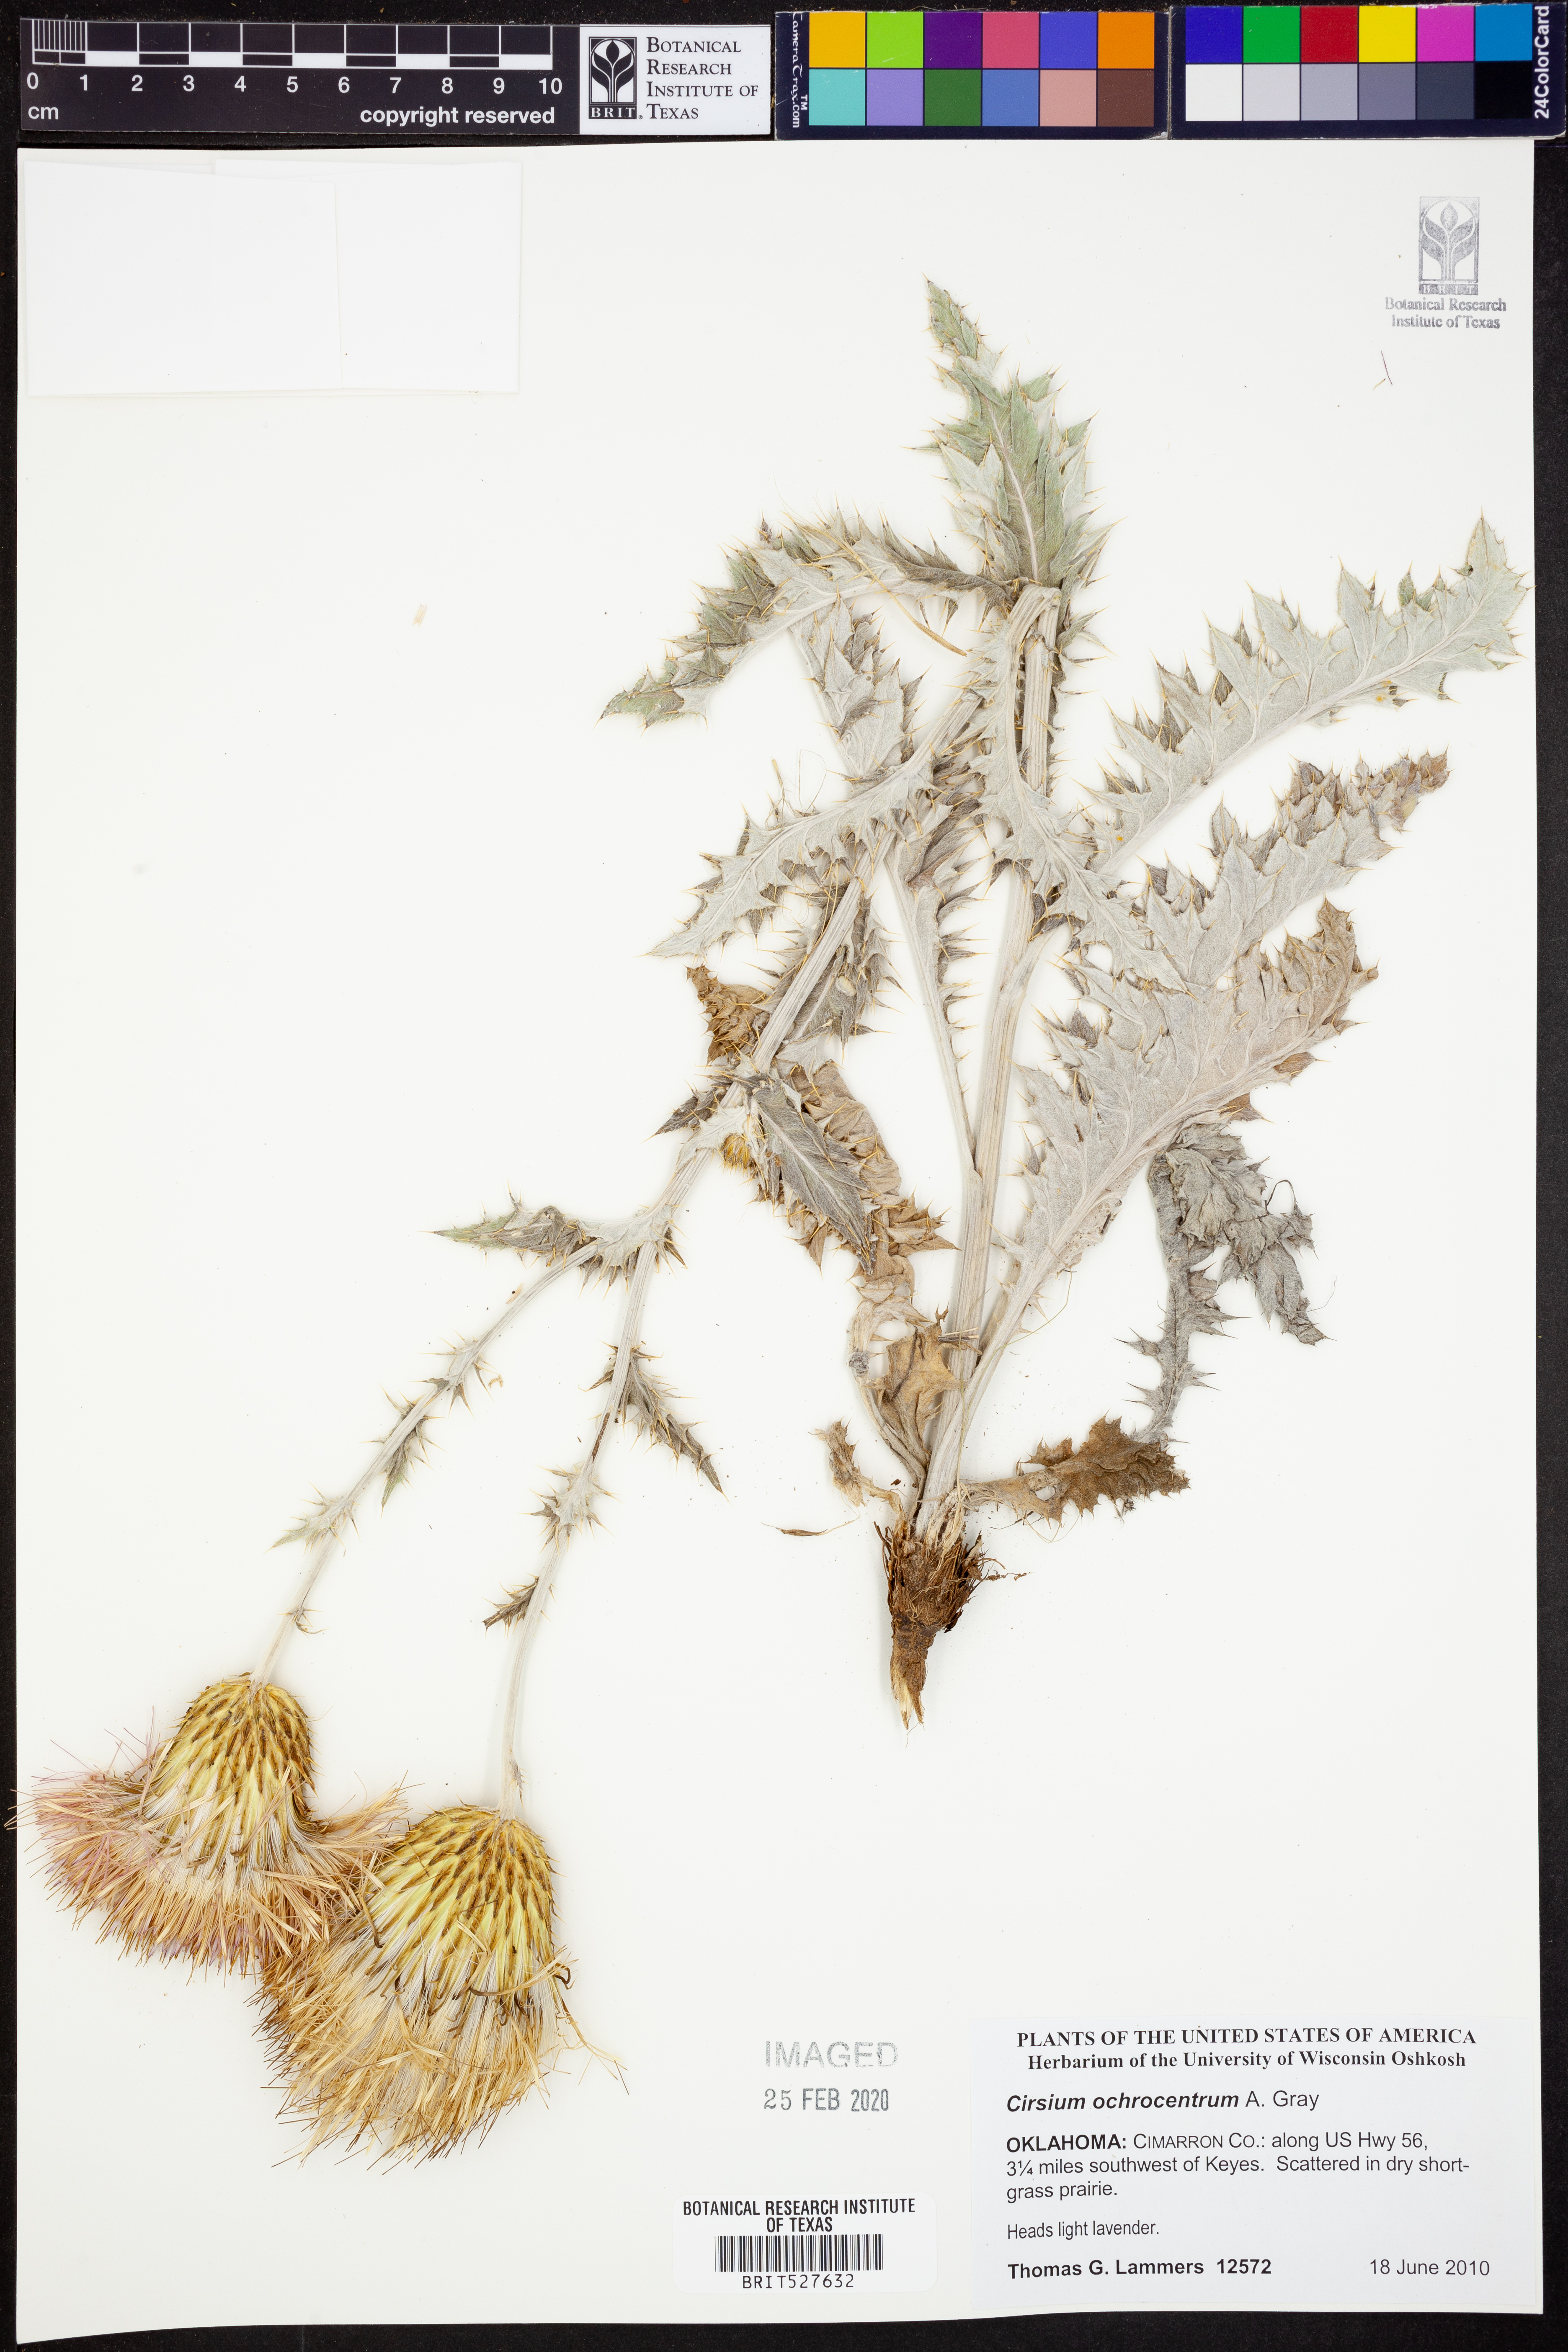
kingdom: Plantae
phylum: Tracheophyta
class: Magnoliopsida
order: Asterales
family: Asteraceae
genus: Cirsium
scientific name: Cirsium ochrocentrum
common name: Yellow-spine thistle
